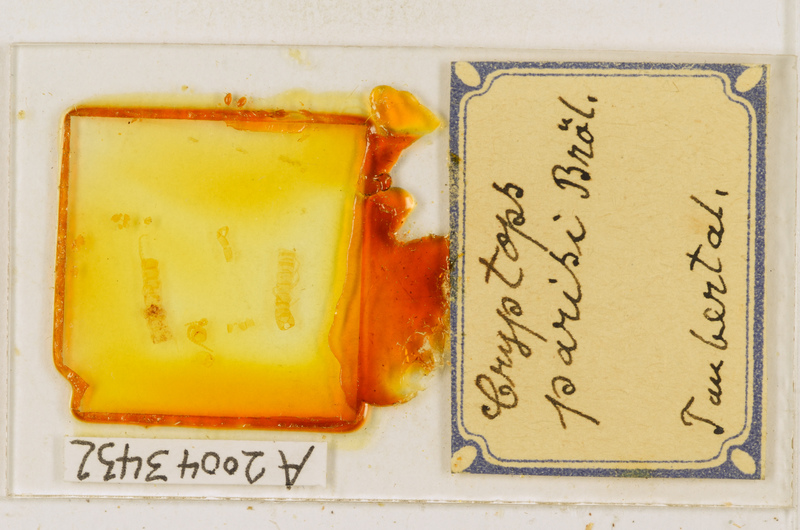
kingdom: Animalia
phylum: Arthropoda
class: Chilopoda
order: Scolopendromorpha
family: Cryptopidae
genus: Cryptops
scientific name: Cryptops parisi
